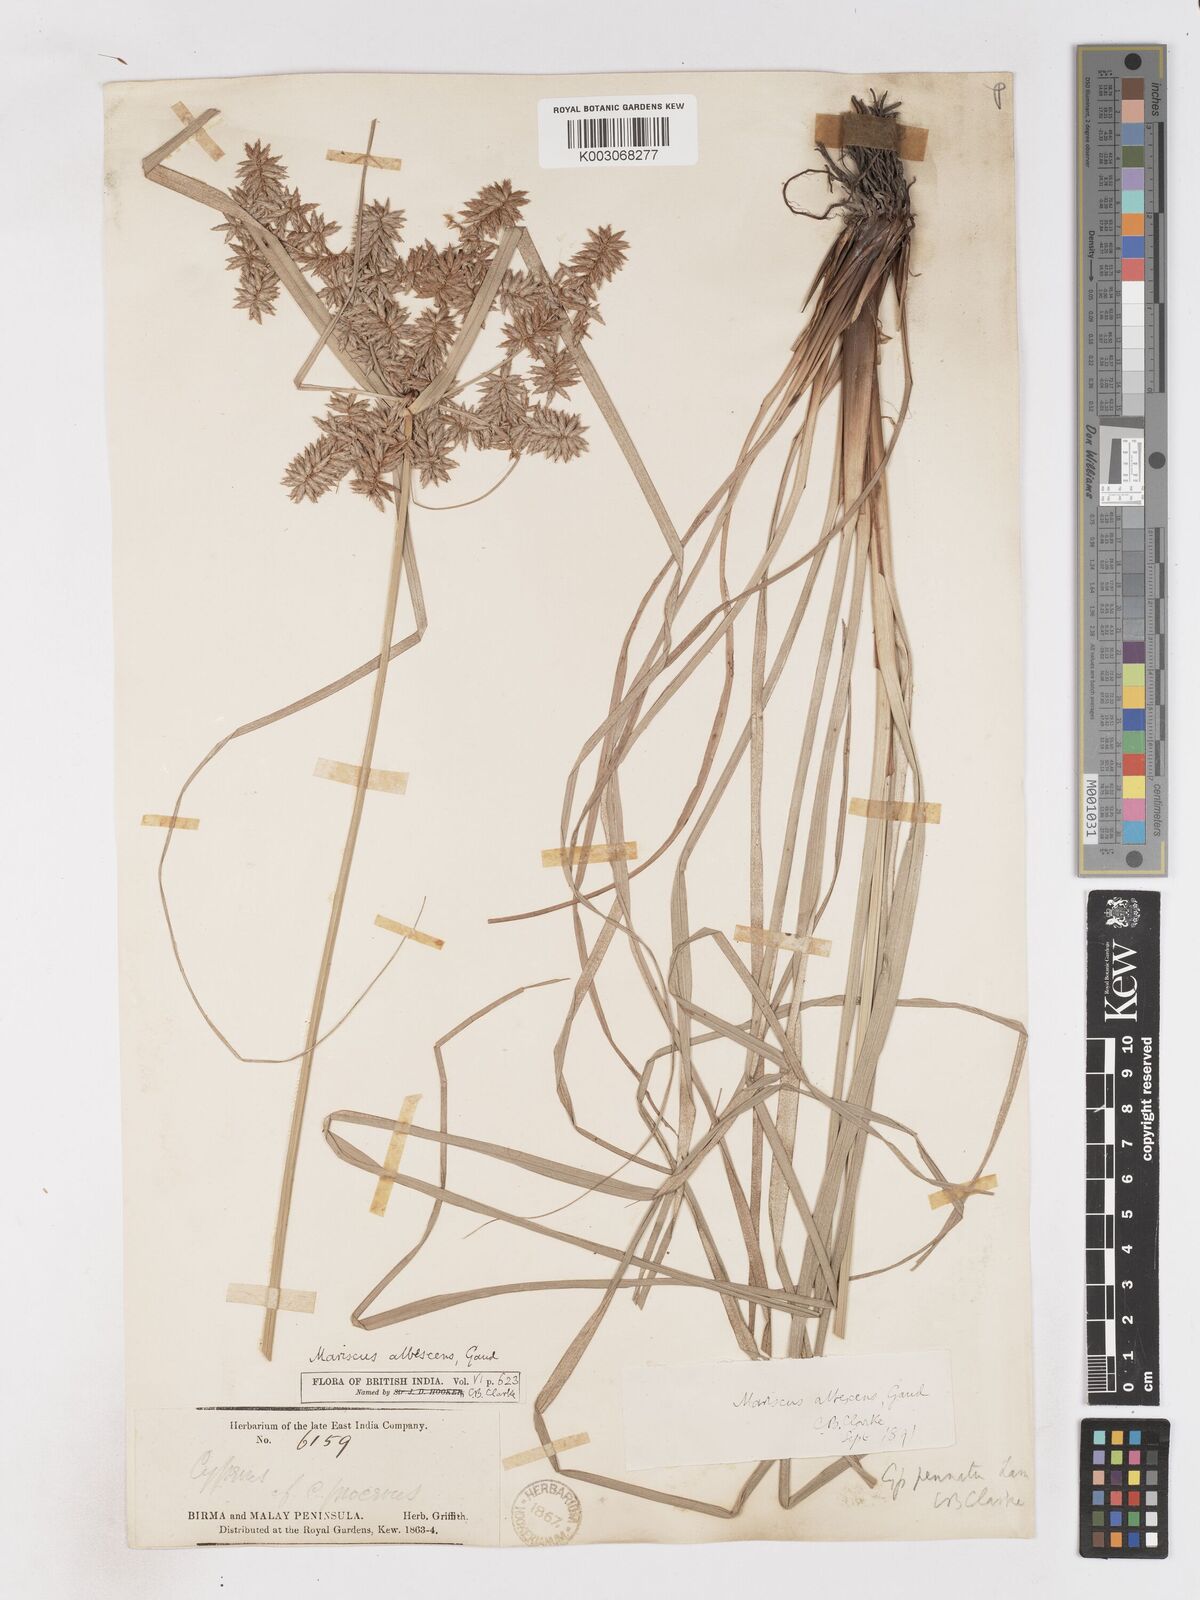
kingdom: Plantae
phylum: Tracheophyta
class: Liliopsida
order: Poales
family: Cyperaceae
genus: Cyperus
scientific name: Cyperus javanicus
